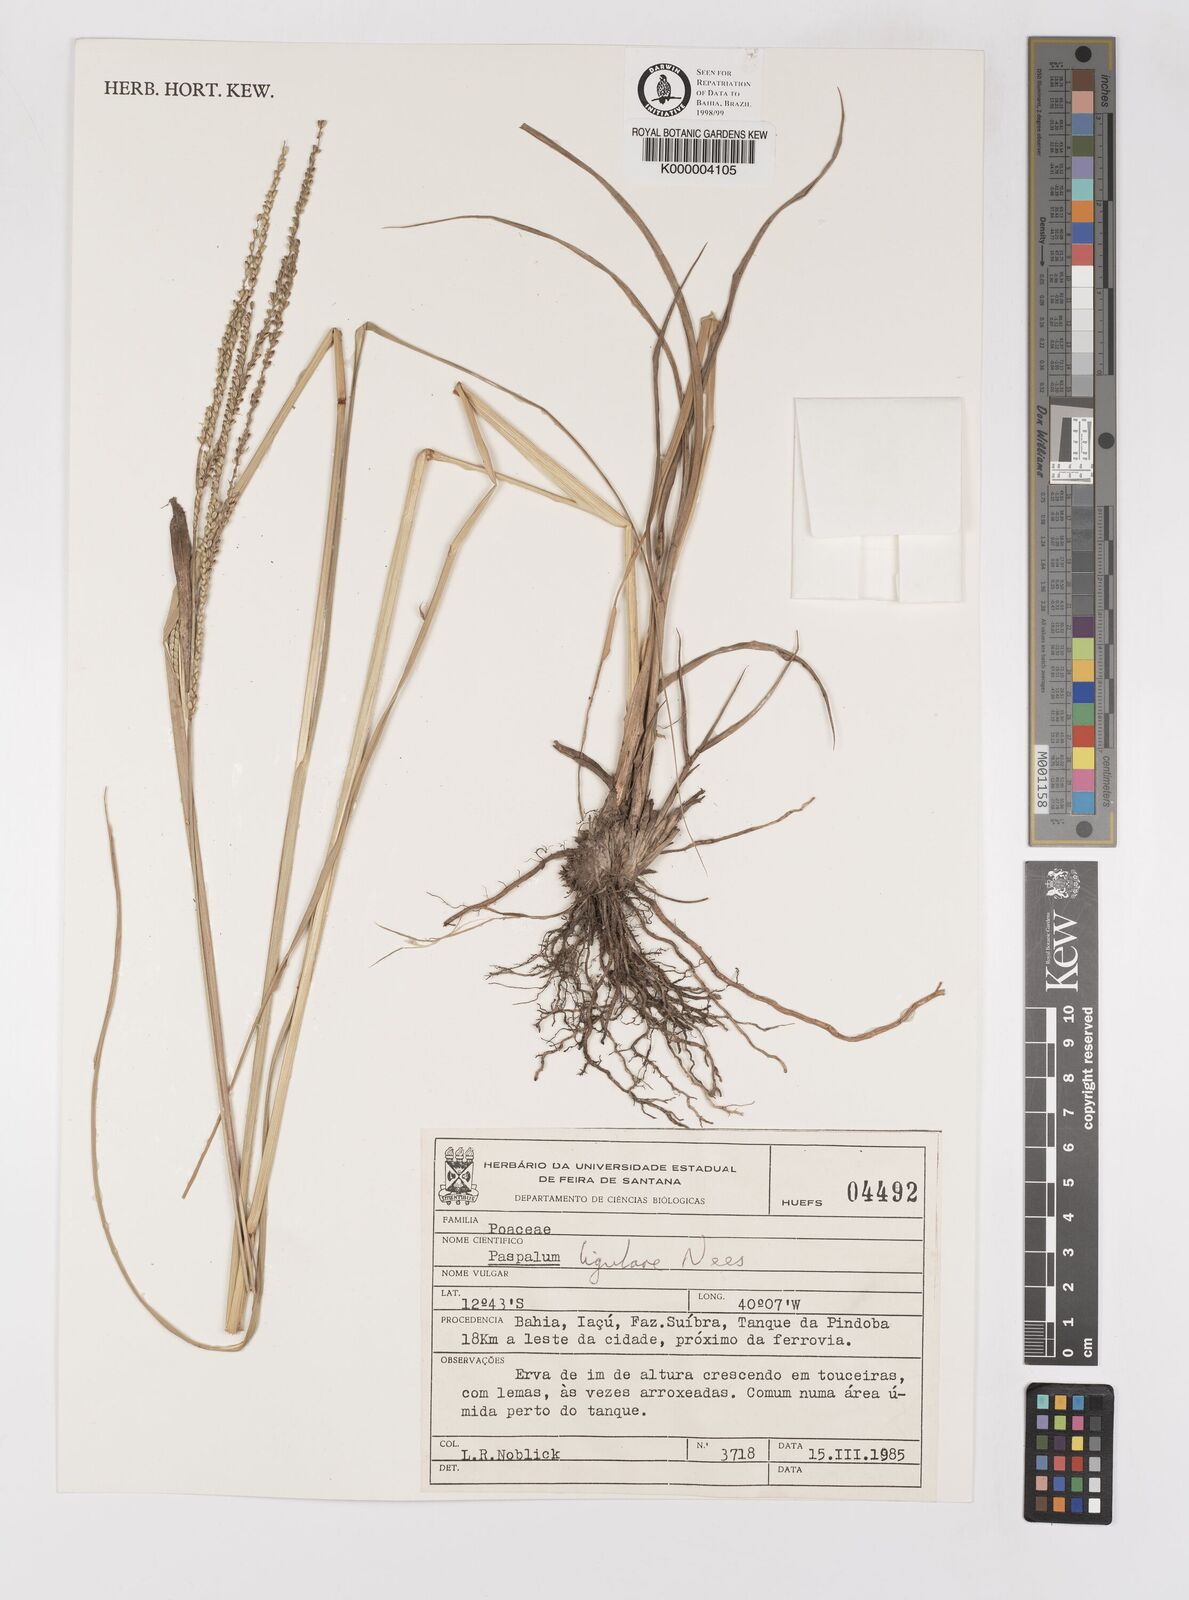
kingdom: Plantae
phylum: Tracheophyta
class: Liliopsida
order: Poales
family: Poaceae
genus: Paspalum
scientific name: Paspalum ligulare
